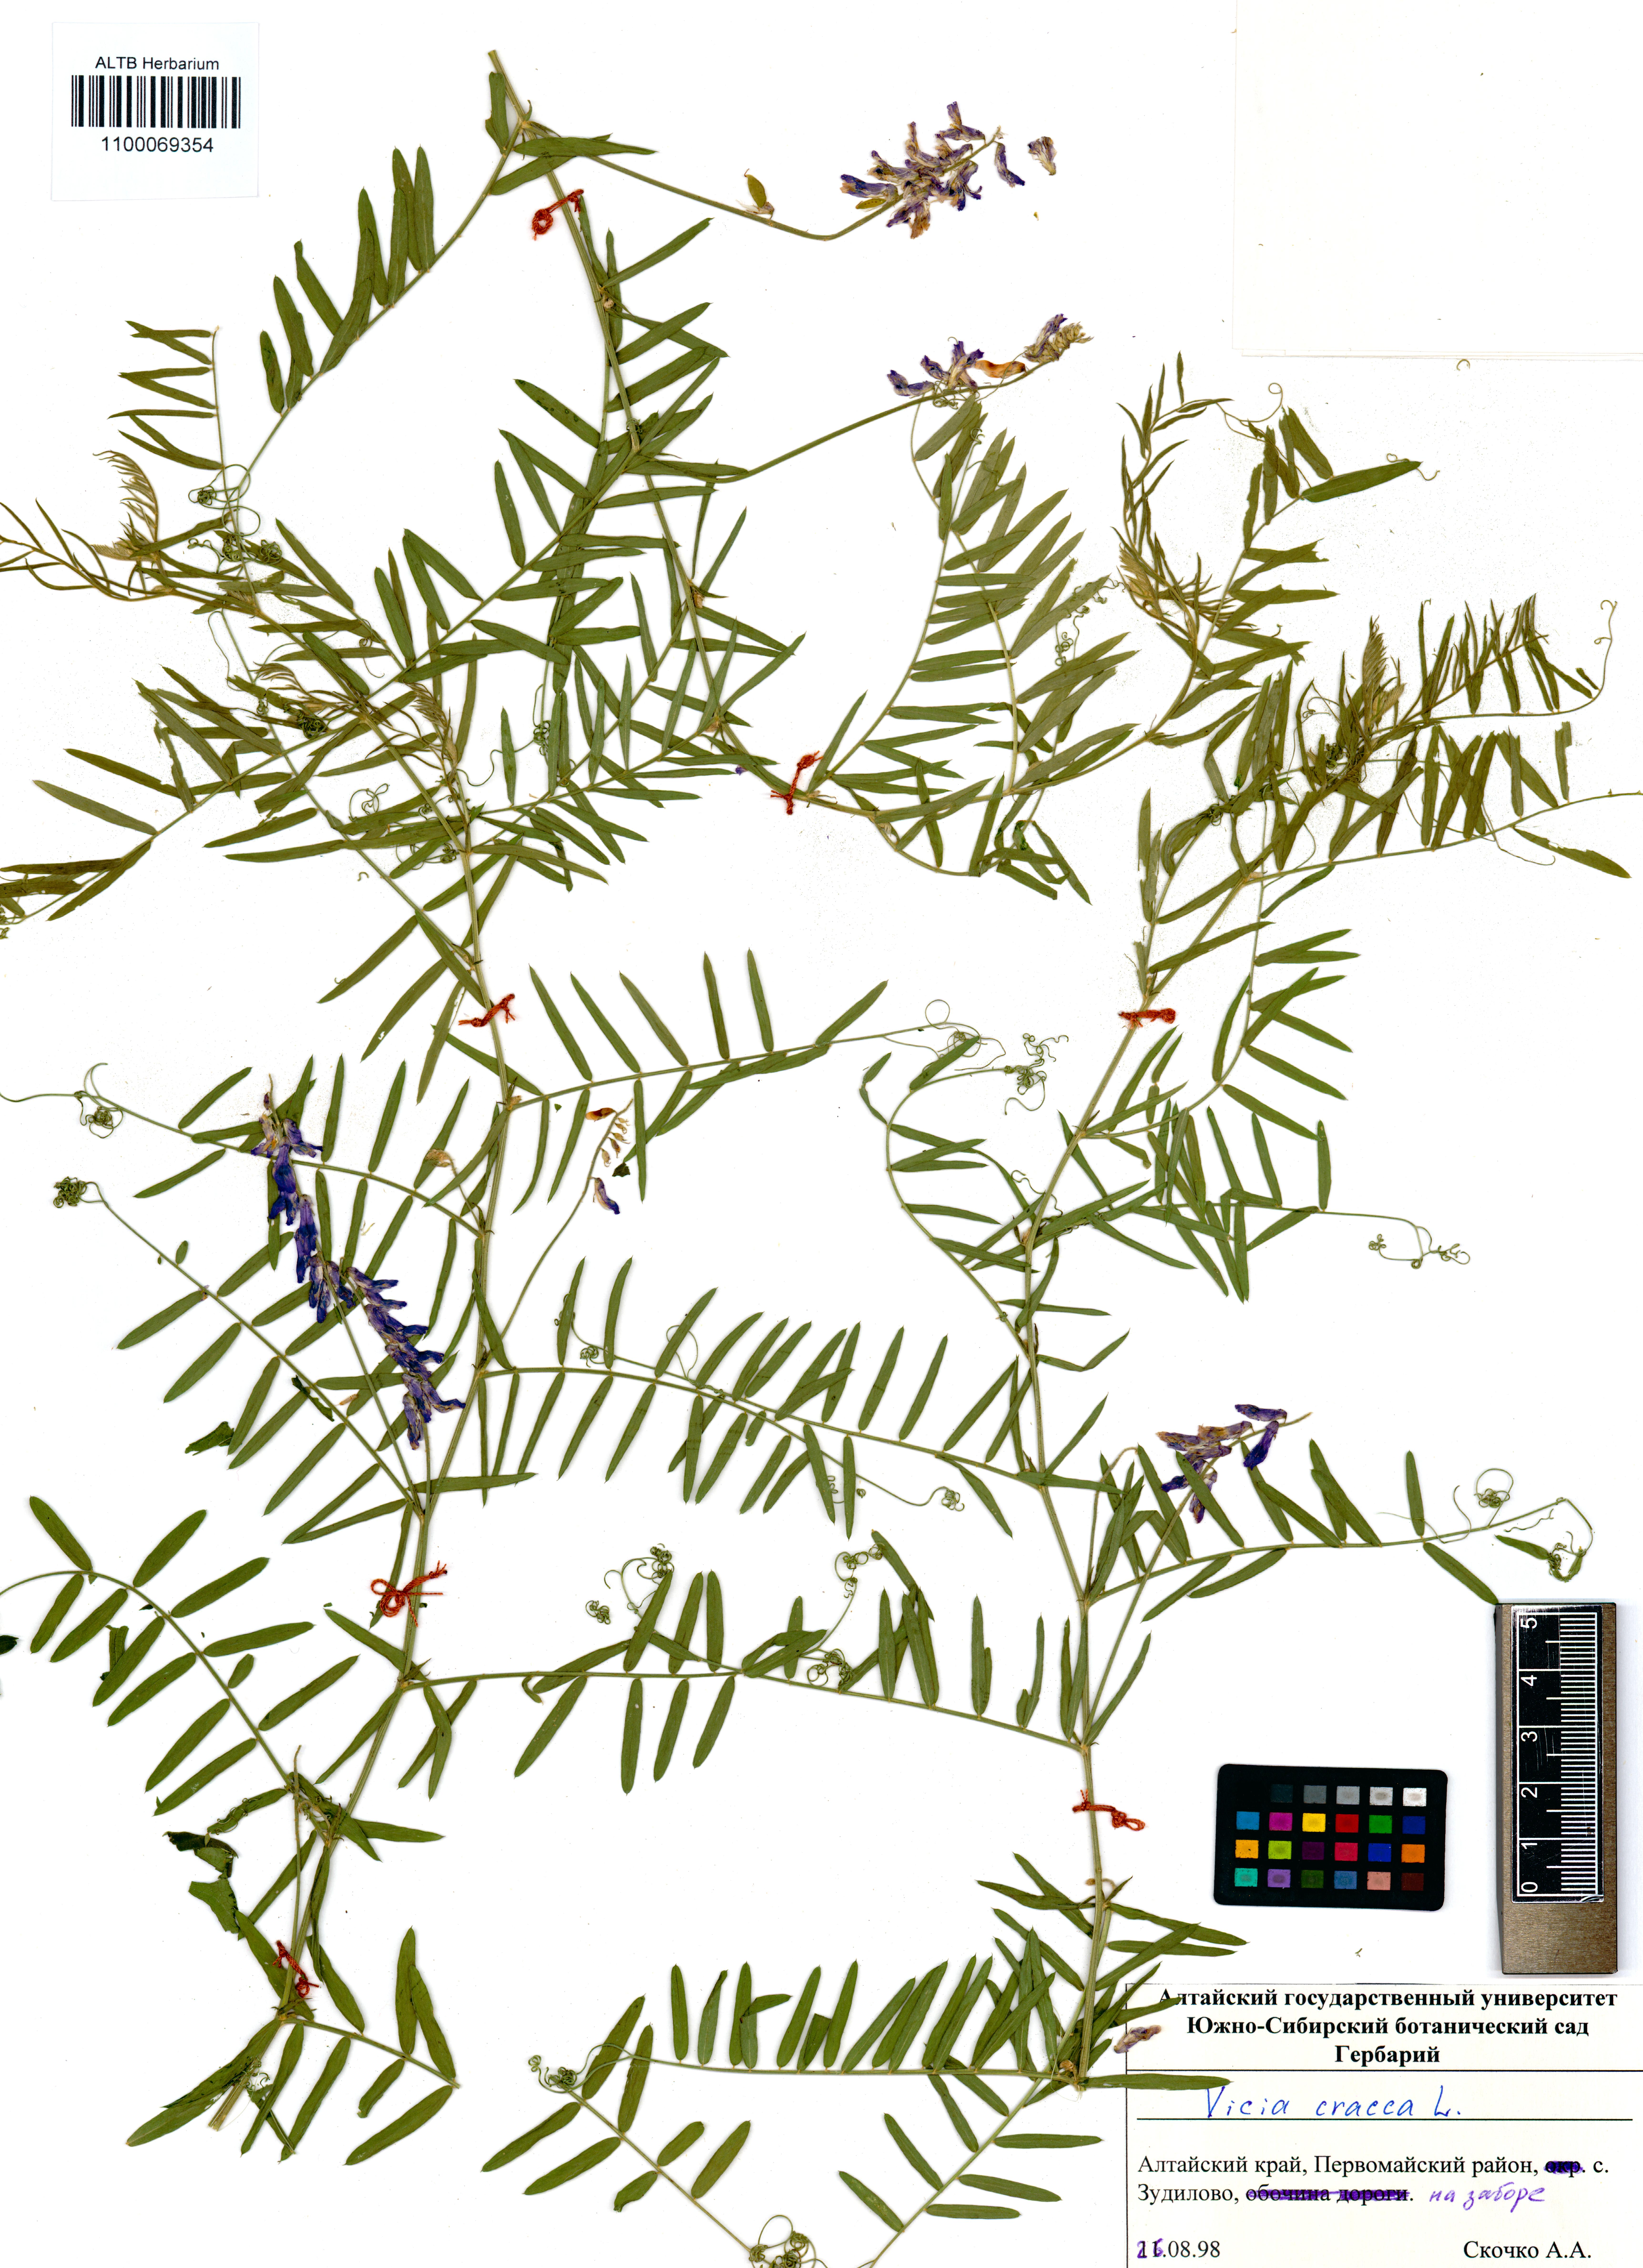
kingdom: Plantae
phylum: Tracheophyta
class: Magnoliopsida
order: Fabales
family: Fabaceae
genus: Vicia
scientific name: Vicia cracca
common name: Bird vetch
